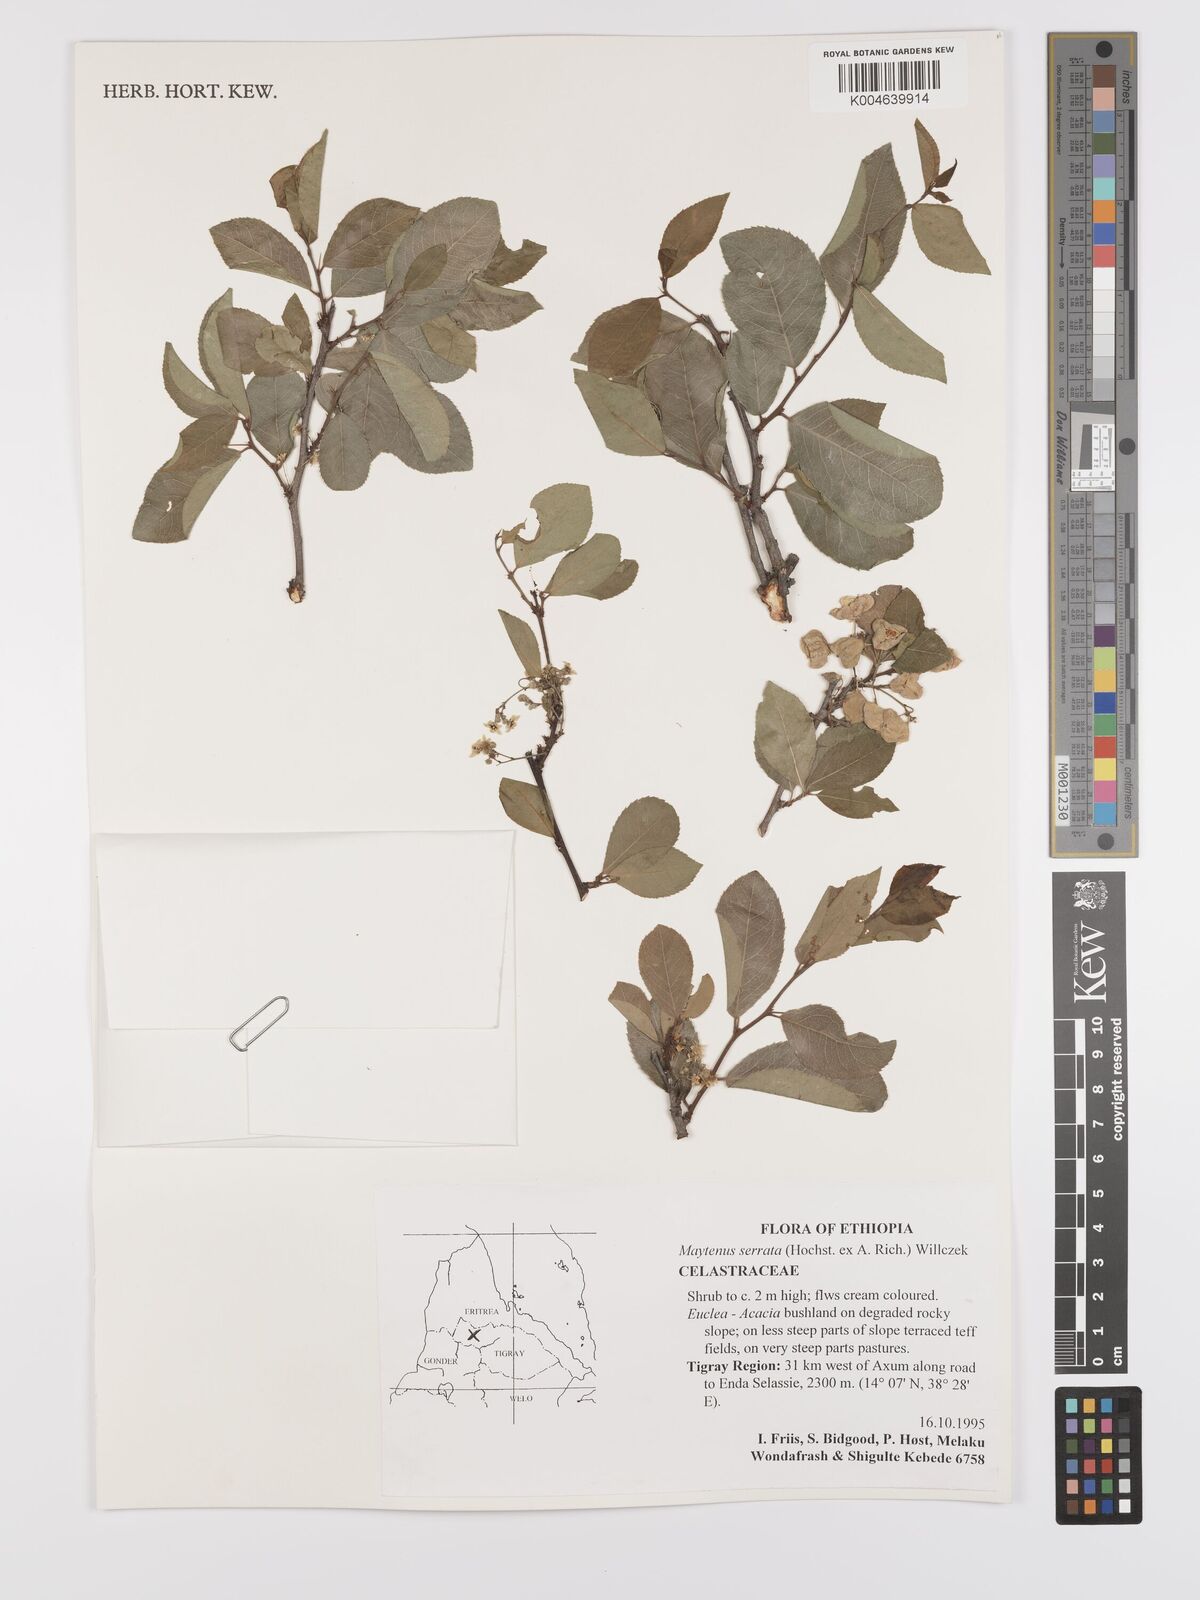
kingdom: Plantae
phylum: Tracheophyta
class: Magnoliopsida
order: Celastrales
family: Celastraceae
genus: Gymnosporia
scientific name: Gymnosporia serrata
